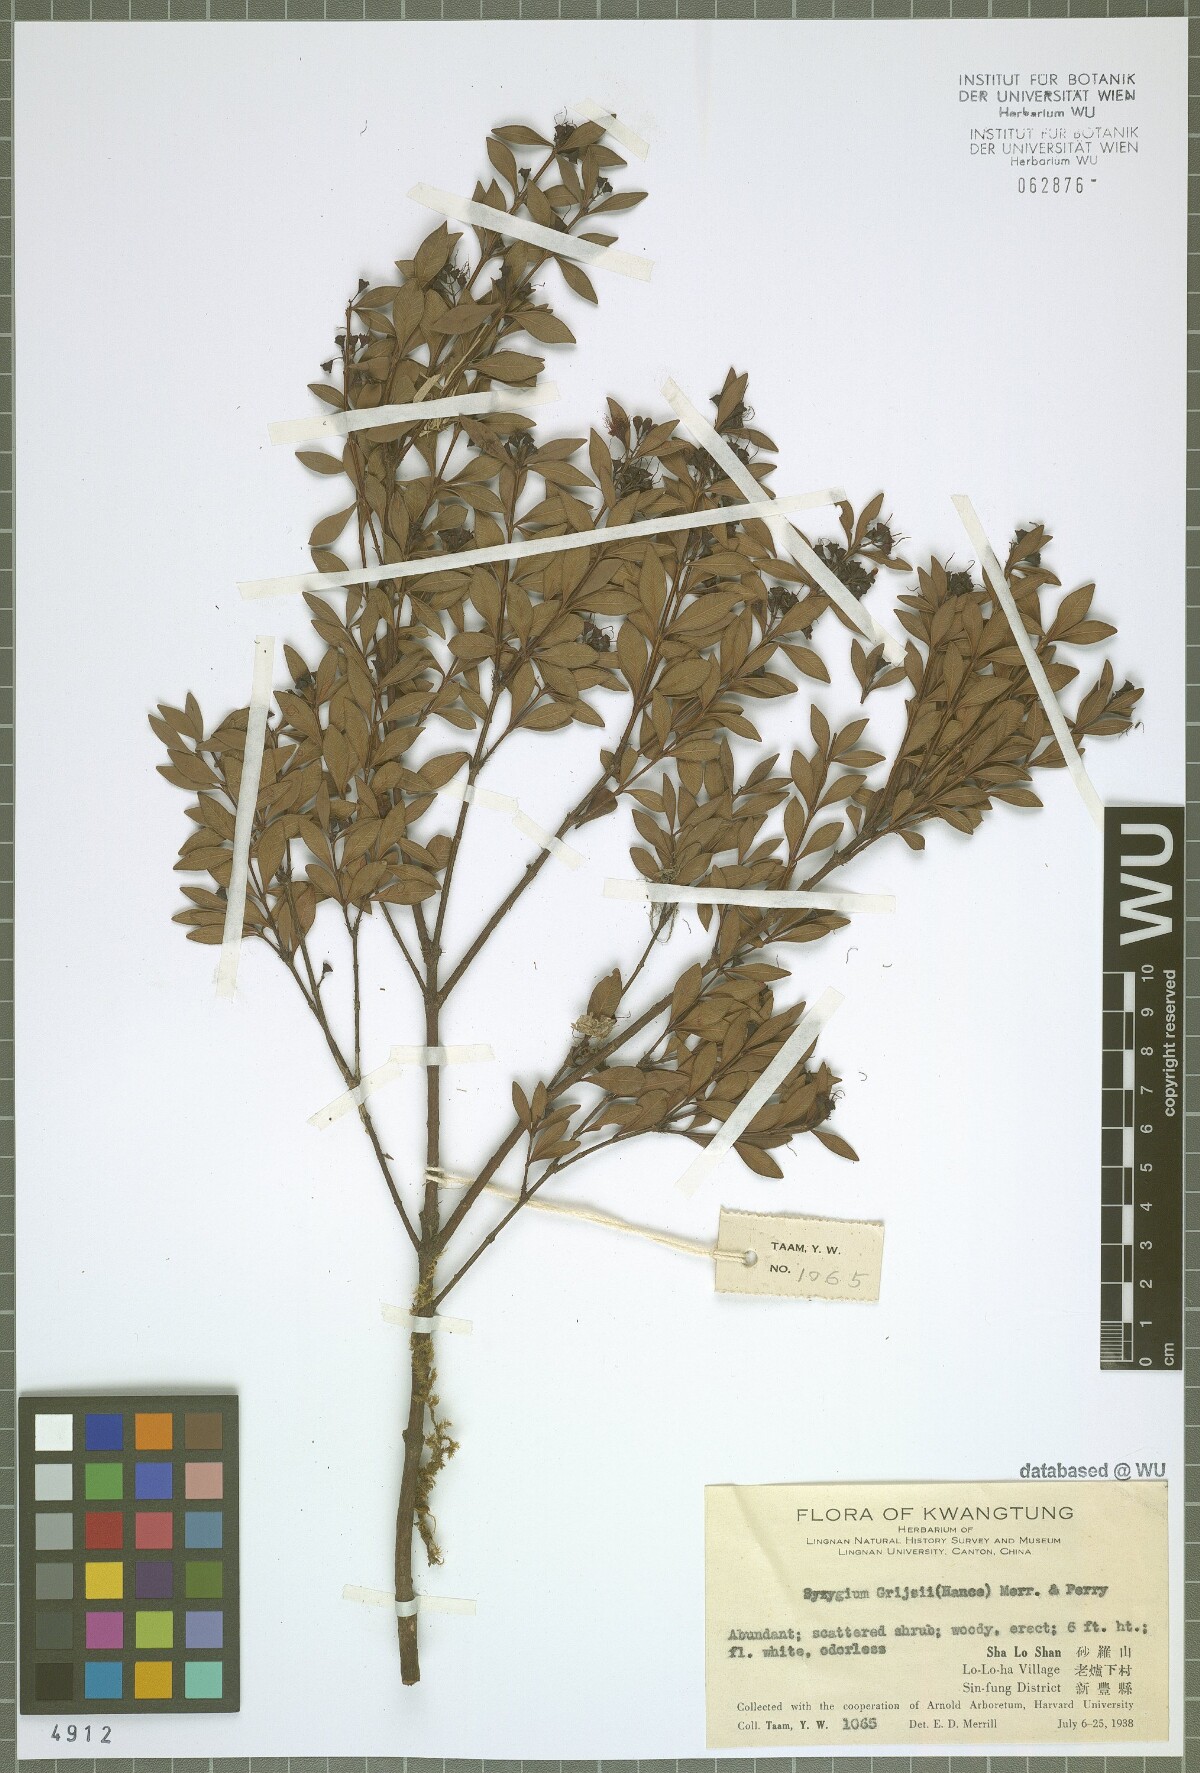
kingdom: Plantae
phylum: Tracheophyta
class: Magnoliopsida
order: Myrtales
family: Myrtaceae
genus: Syzygium
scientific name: Syzygium grijsii
